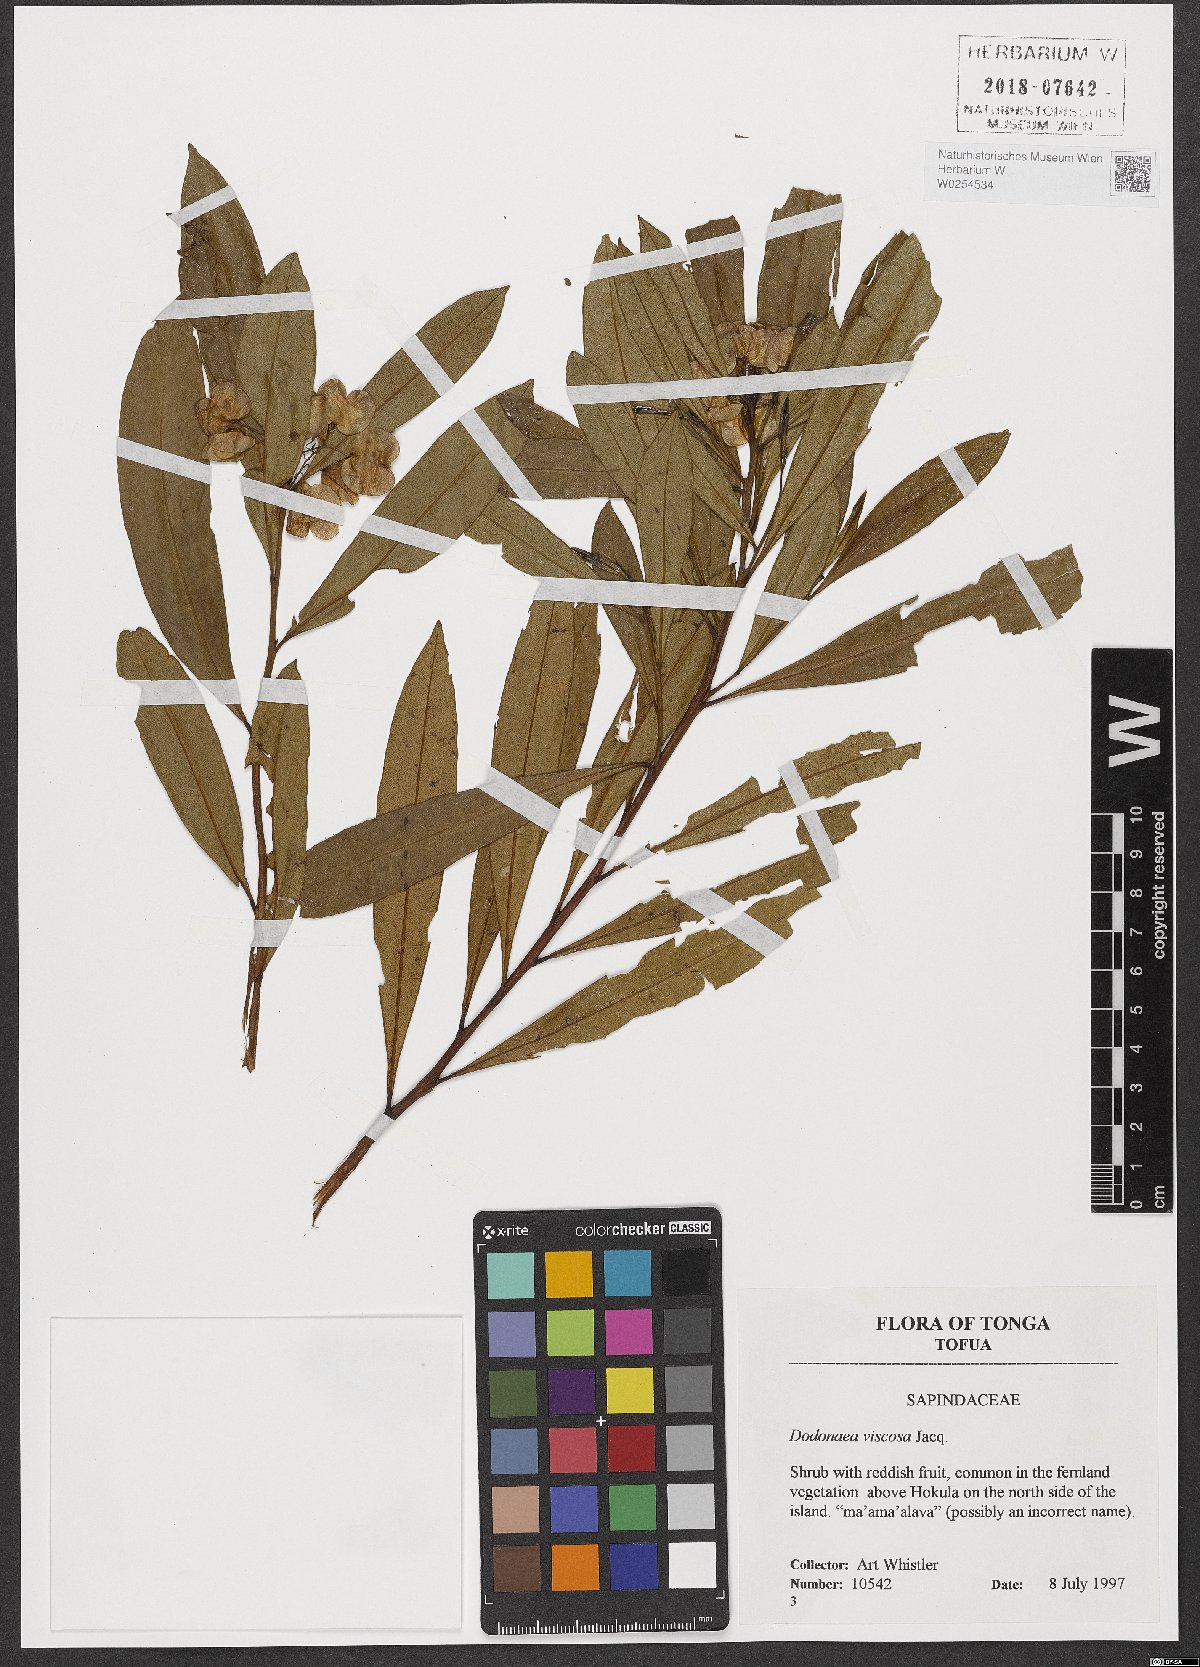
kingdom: Plantae
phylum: Tracheophyta
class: Magnoliopsida
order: Sapindales
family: Sapindaceae
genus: Dodonaea
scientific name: Dodonaea viscosa
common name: Hopbush
